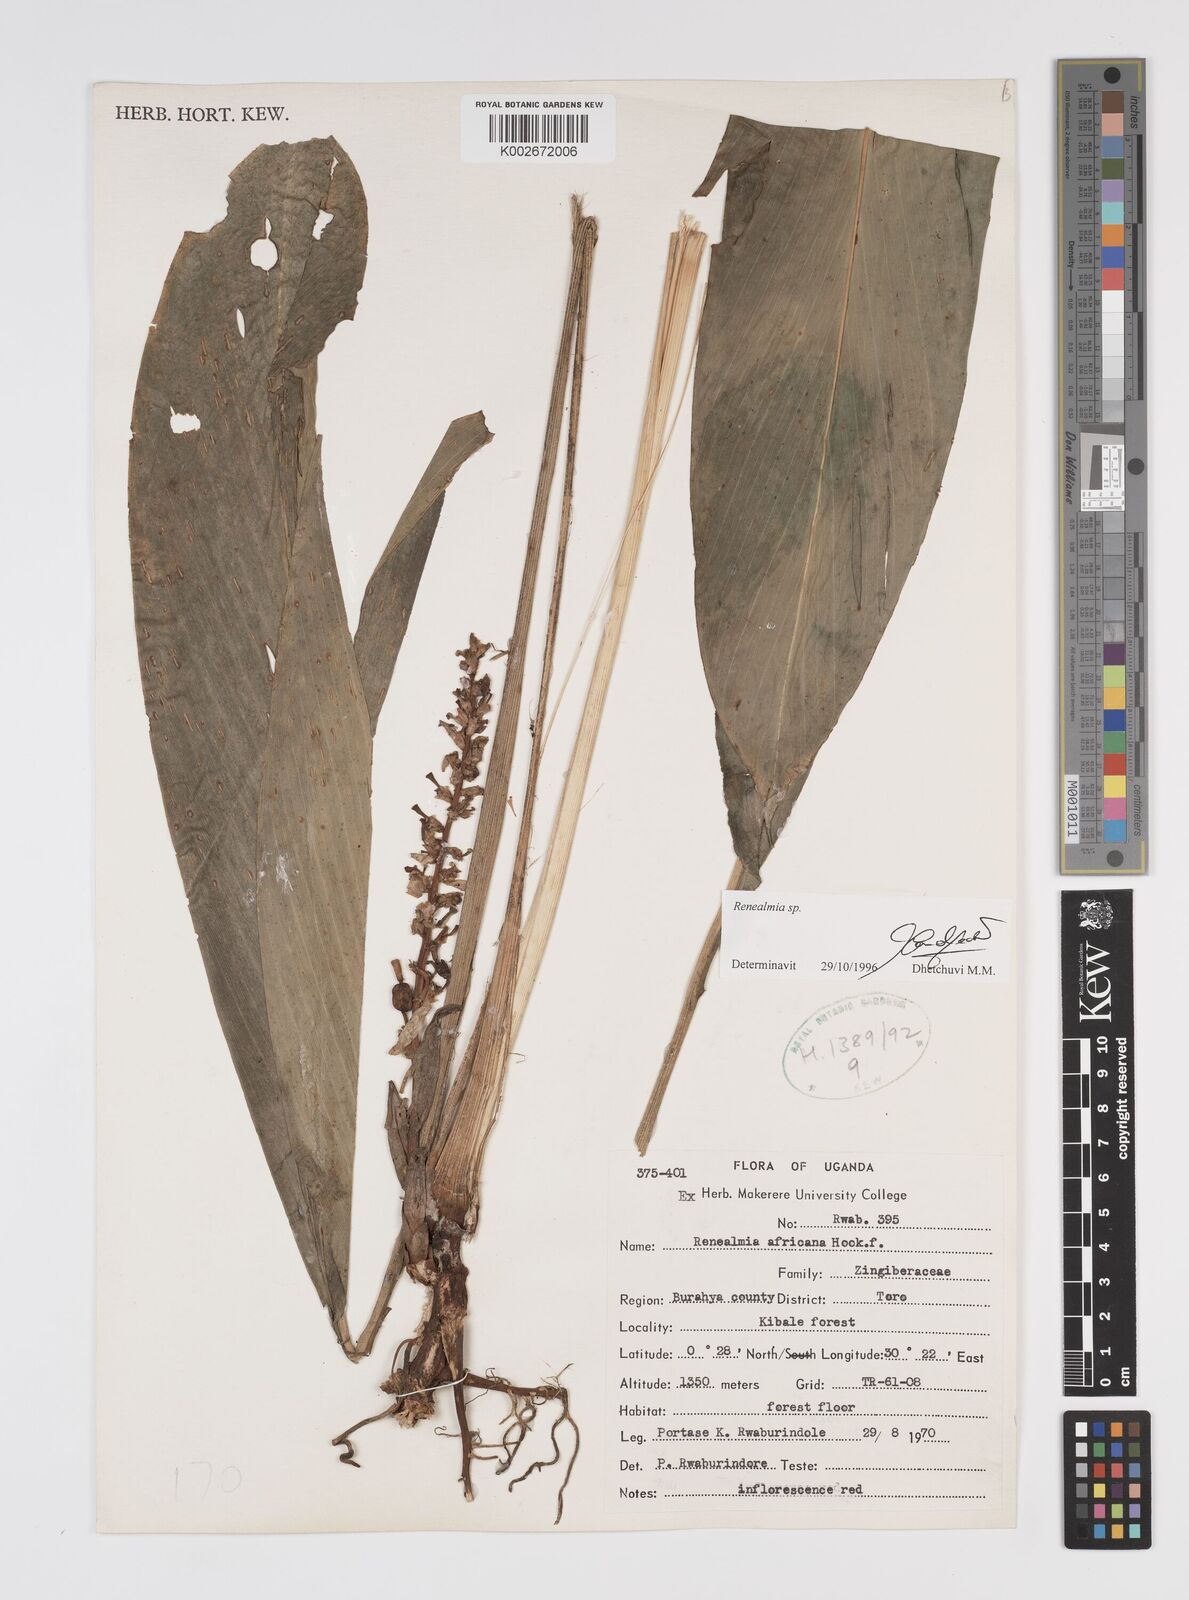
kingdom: Plantae
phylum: Tracheophyta
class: Liliopsida
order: Zingiberales
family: Zingiberaceae
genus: Renealmia
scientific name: Renealmia
